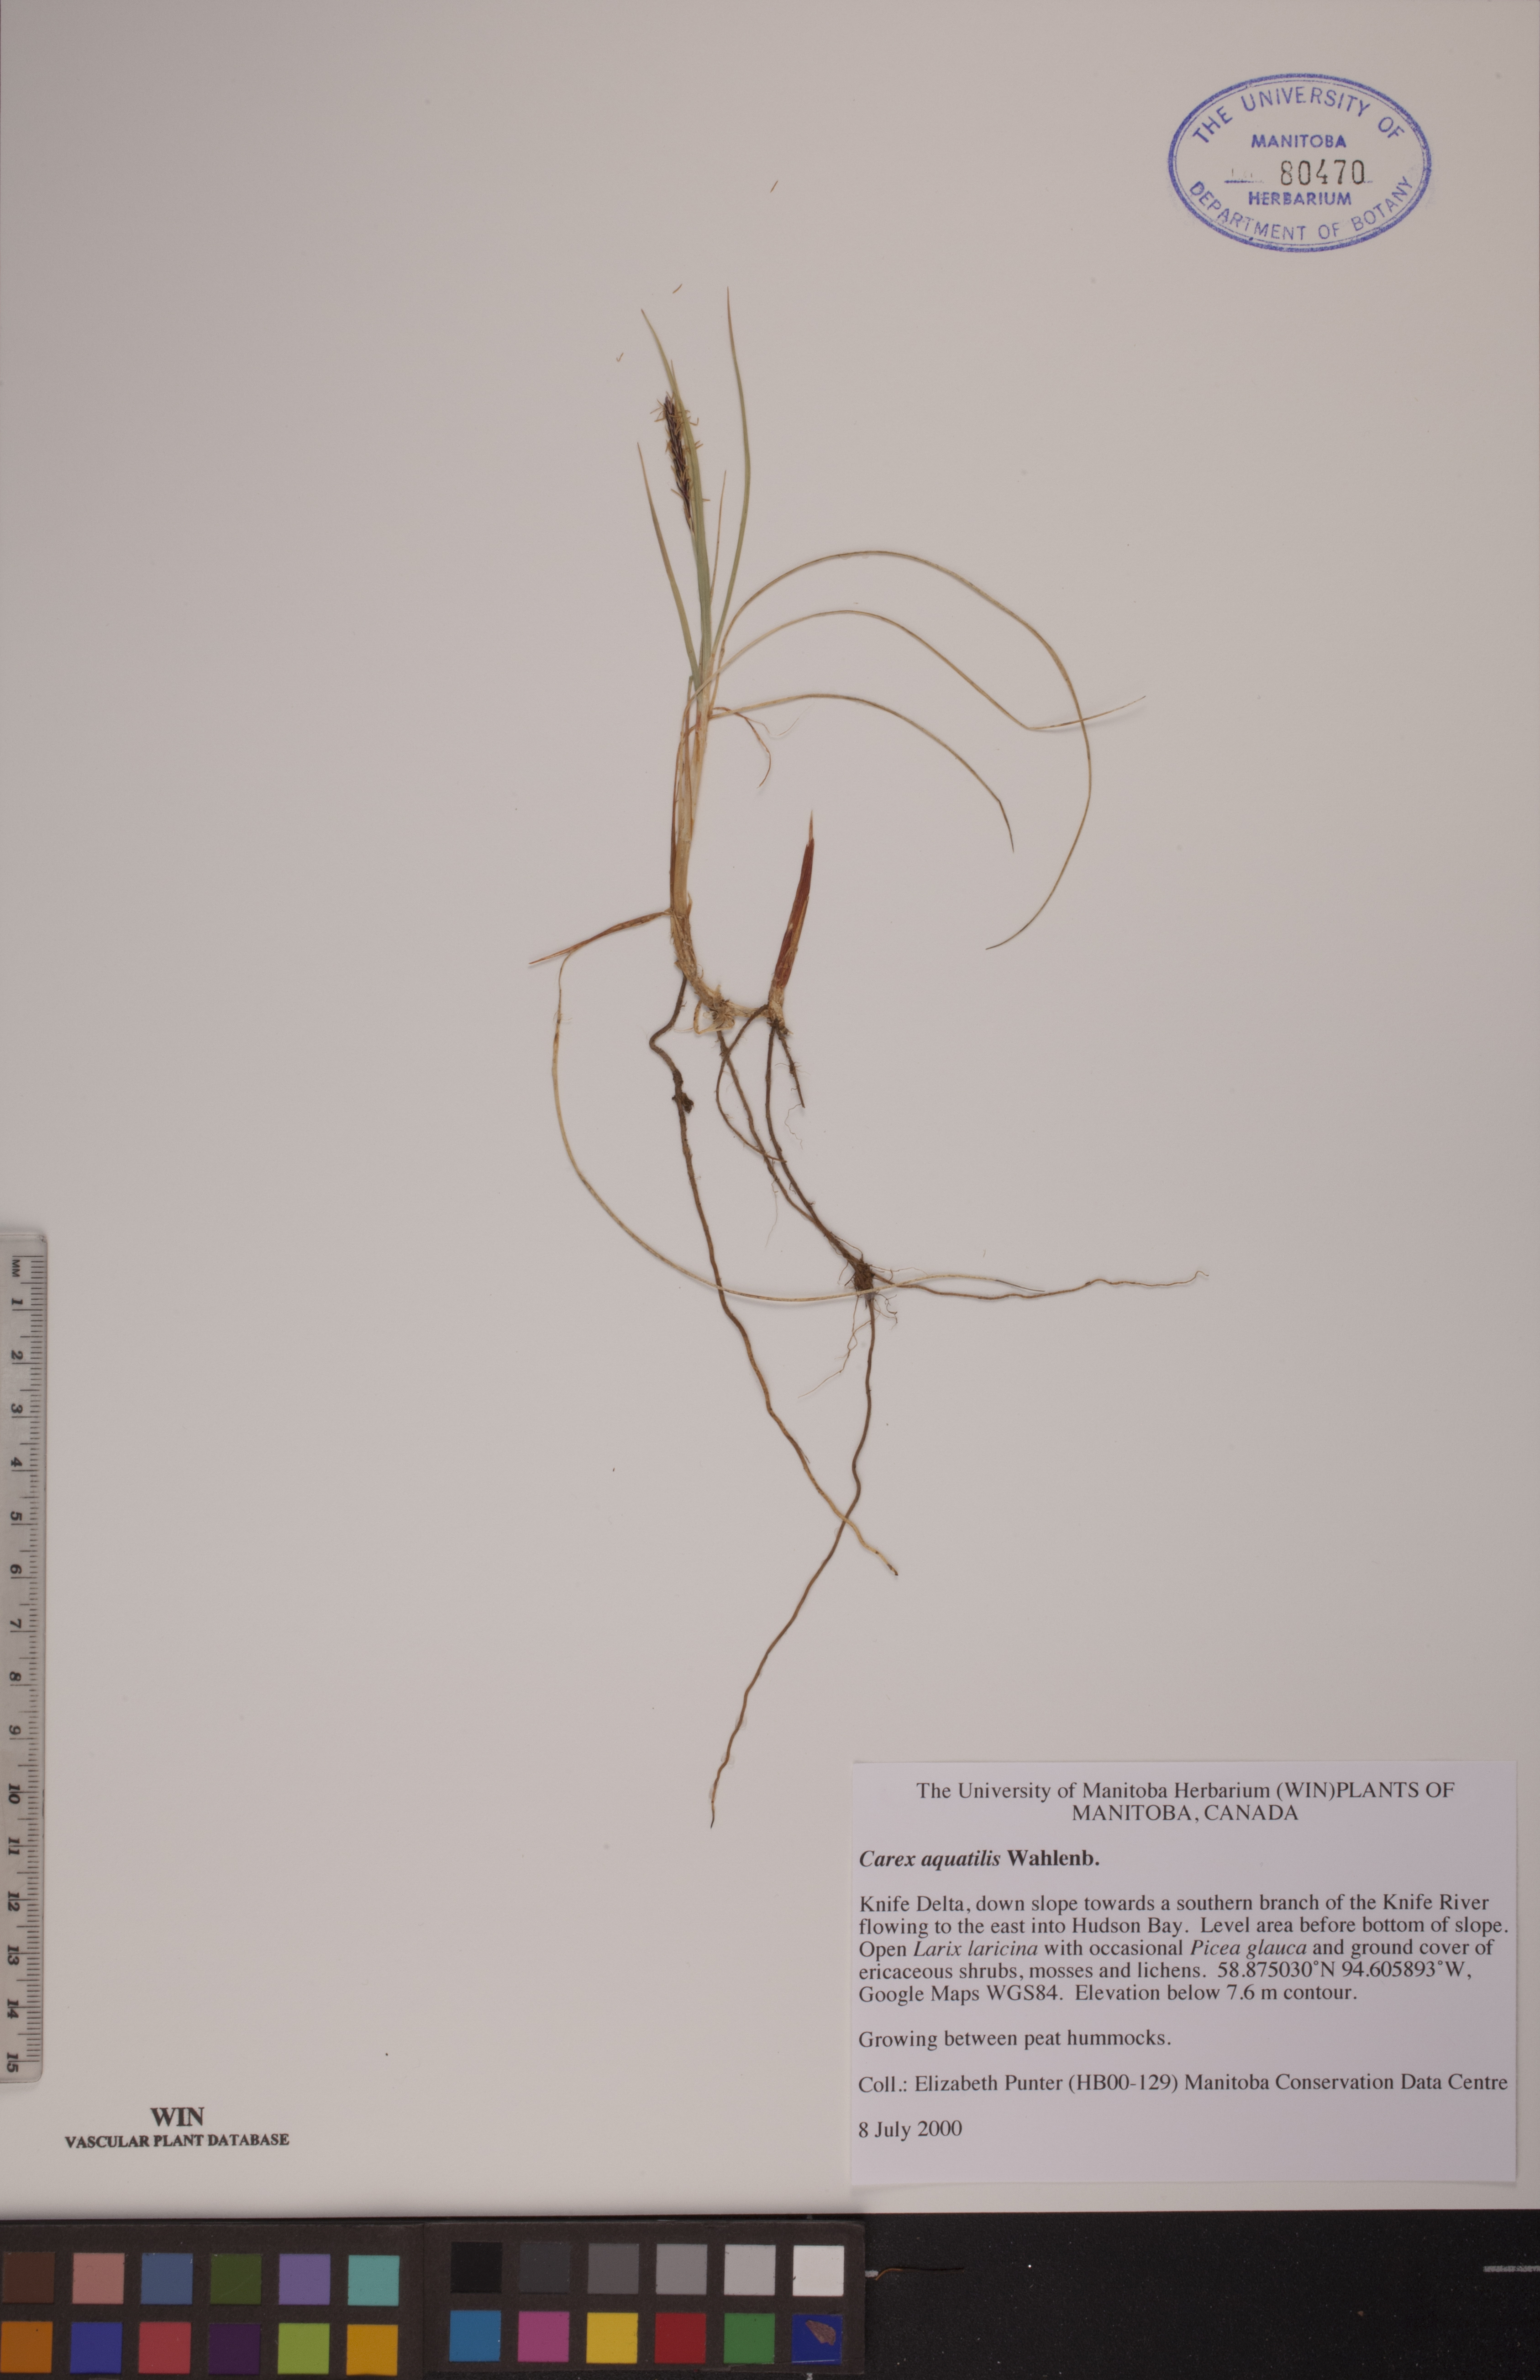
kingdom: Plantae
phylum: Tracheophyta
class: Liliopsida
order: Poales
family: Cyperaceae
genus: Carex
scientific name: Carex aquatilis
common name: Water sedge
